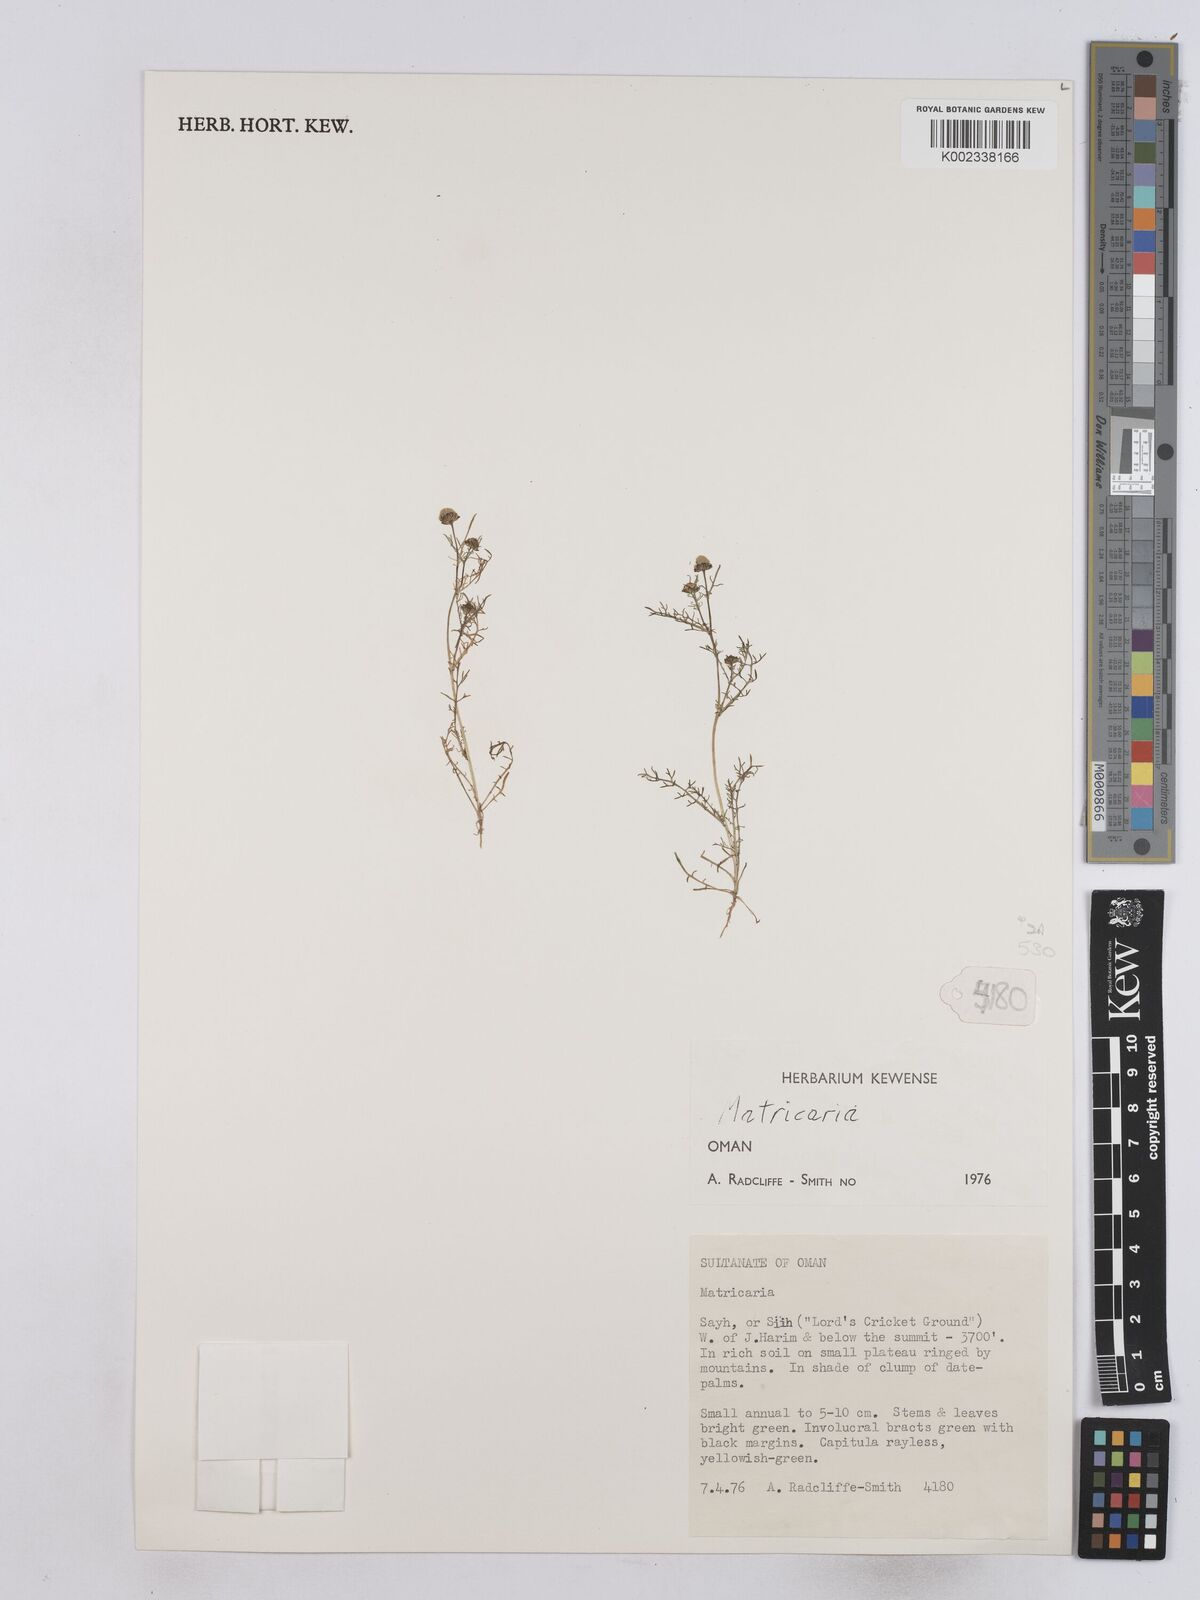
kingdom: Plantae
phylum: Tracheophyta
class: Magnoliopsida
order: Asterales
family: Asteraceae
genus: Matricaria
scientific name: Matricaria
